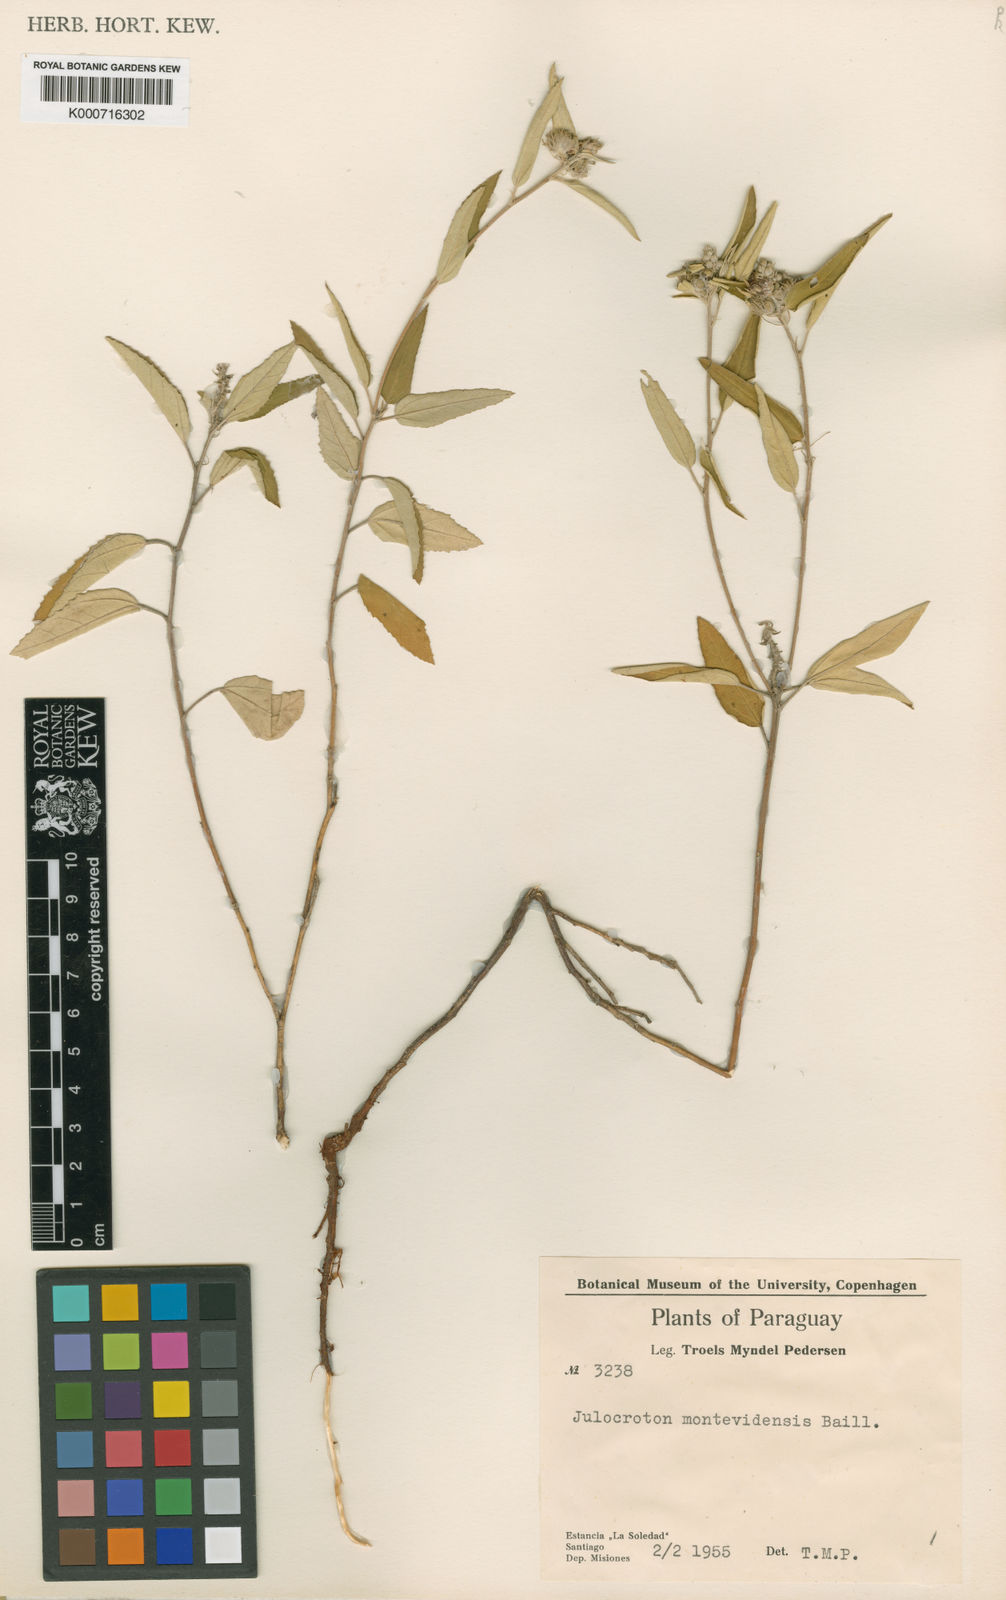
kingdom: Plantae
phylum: Tracheophyta
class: Magnoliopsida
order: Malpighiales
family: Euphorbiaceae
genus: Croton
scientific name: Croton argenteus
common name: Silver july croton
